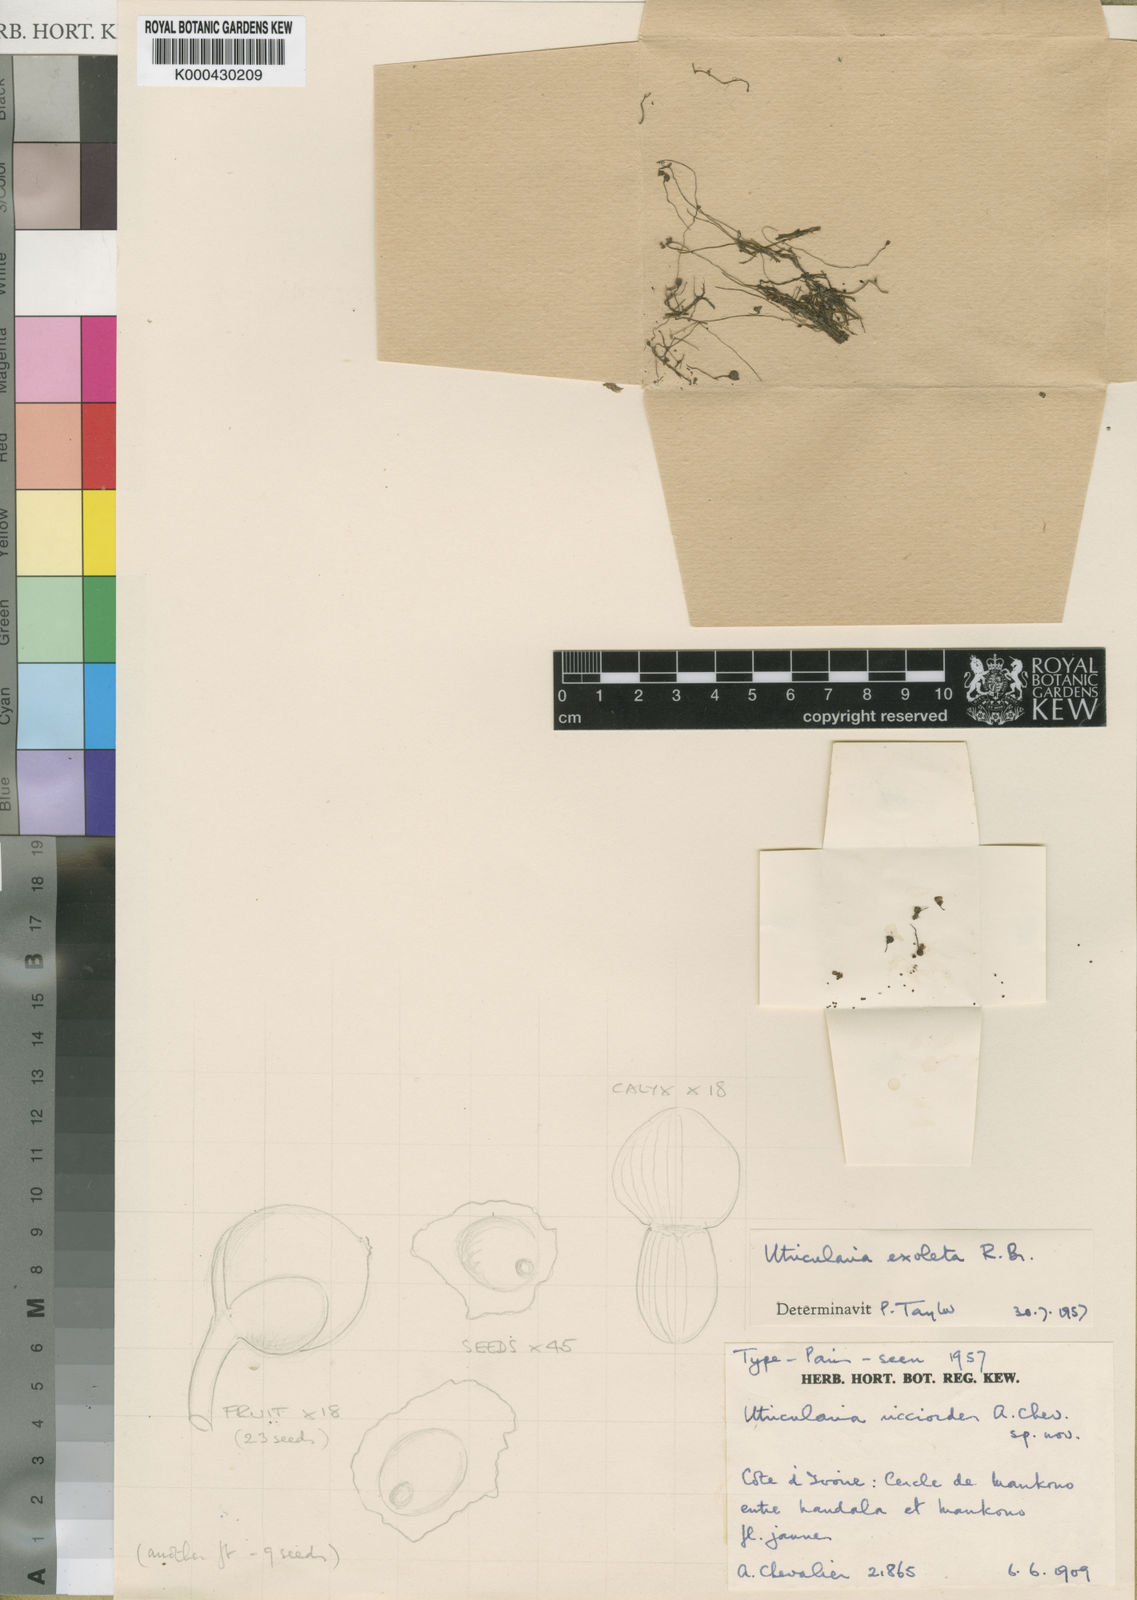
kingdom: Plantae
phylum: Tracheophyta
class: Magnoliopsida
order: Lamiales
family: Lentibulariaceae
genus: Utricularia
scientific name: Utricularia gibba
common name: Humped bladderwort
